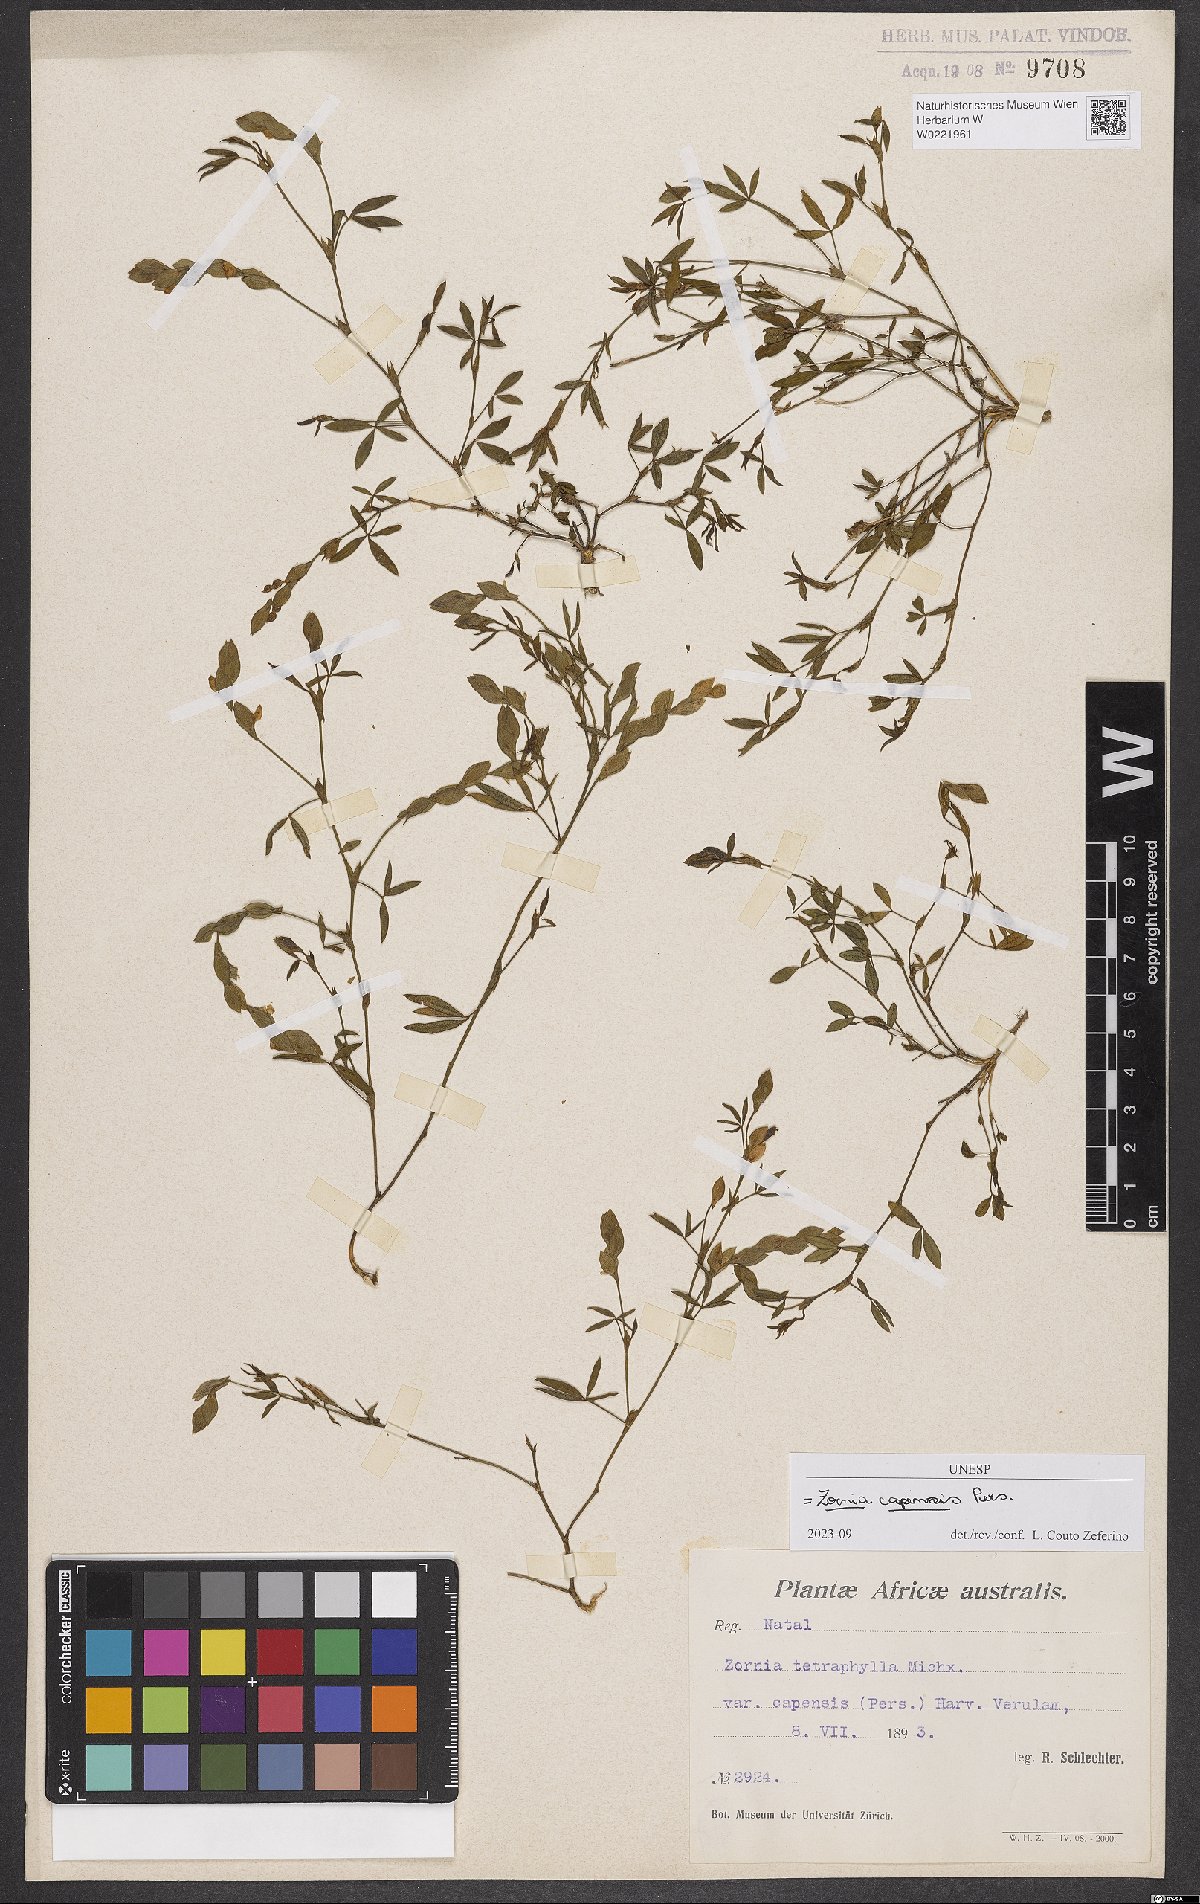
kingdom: Plantae
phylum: Tracheophyta
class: Magnoliopsida
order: Fabales
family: Fabaceae
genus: Zornia
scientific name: Zornia capensis
